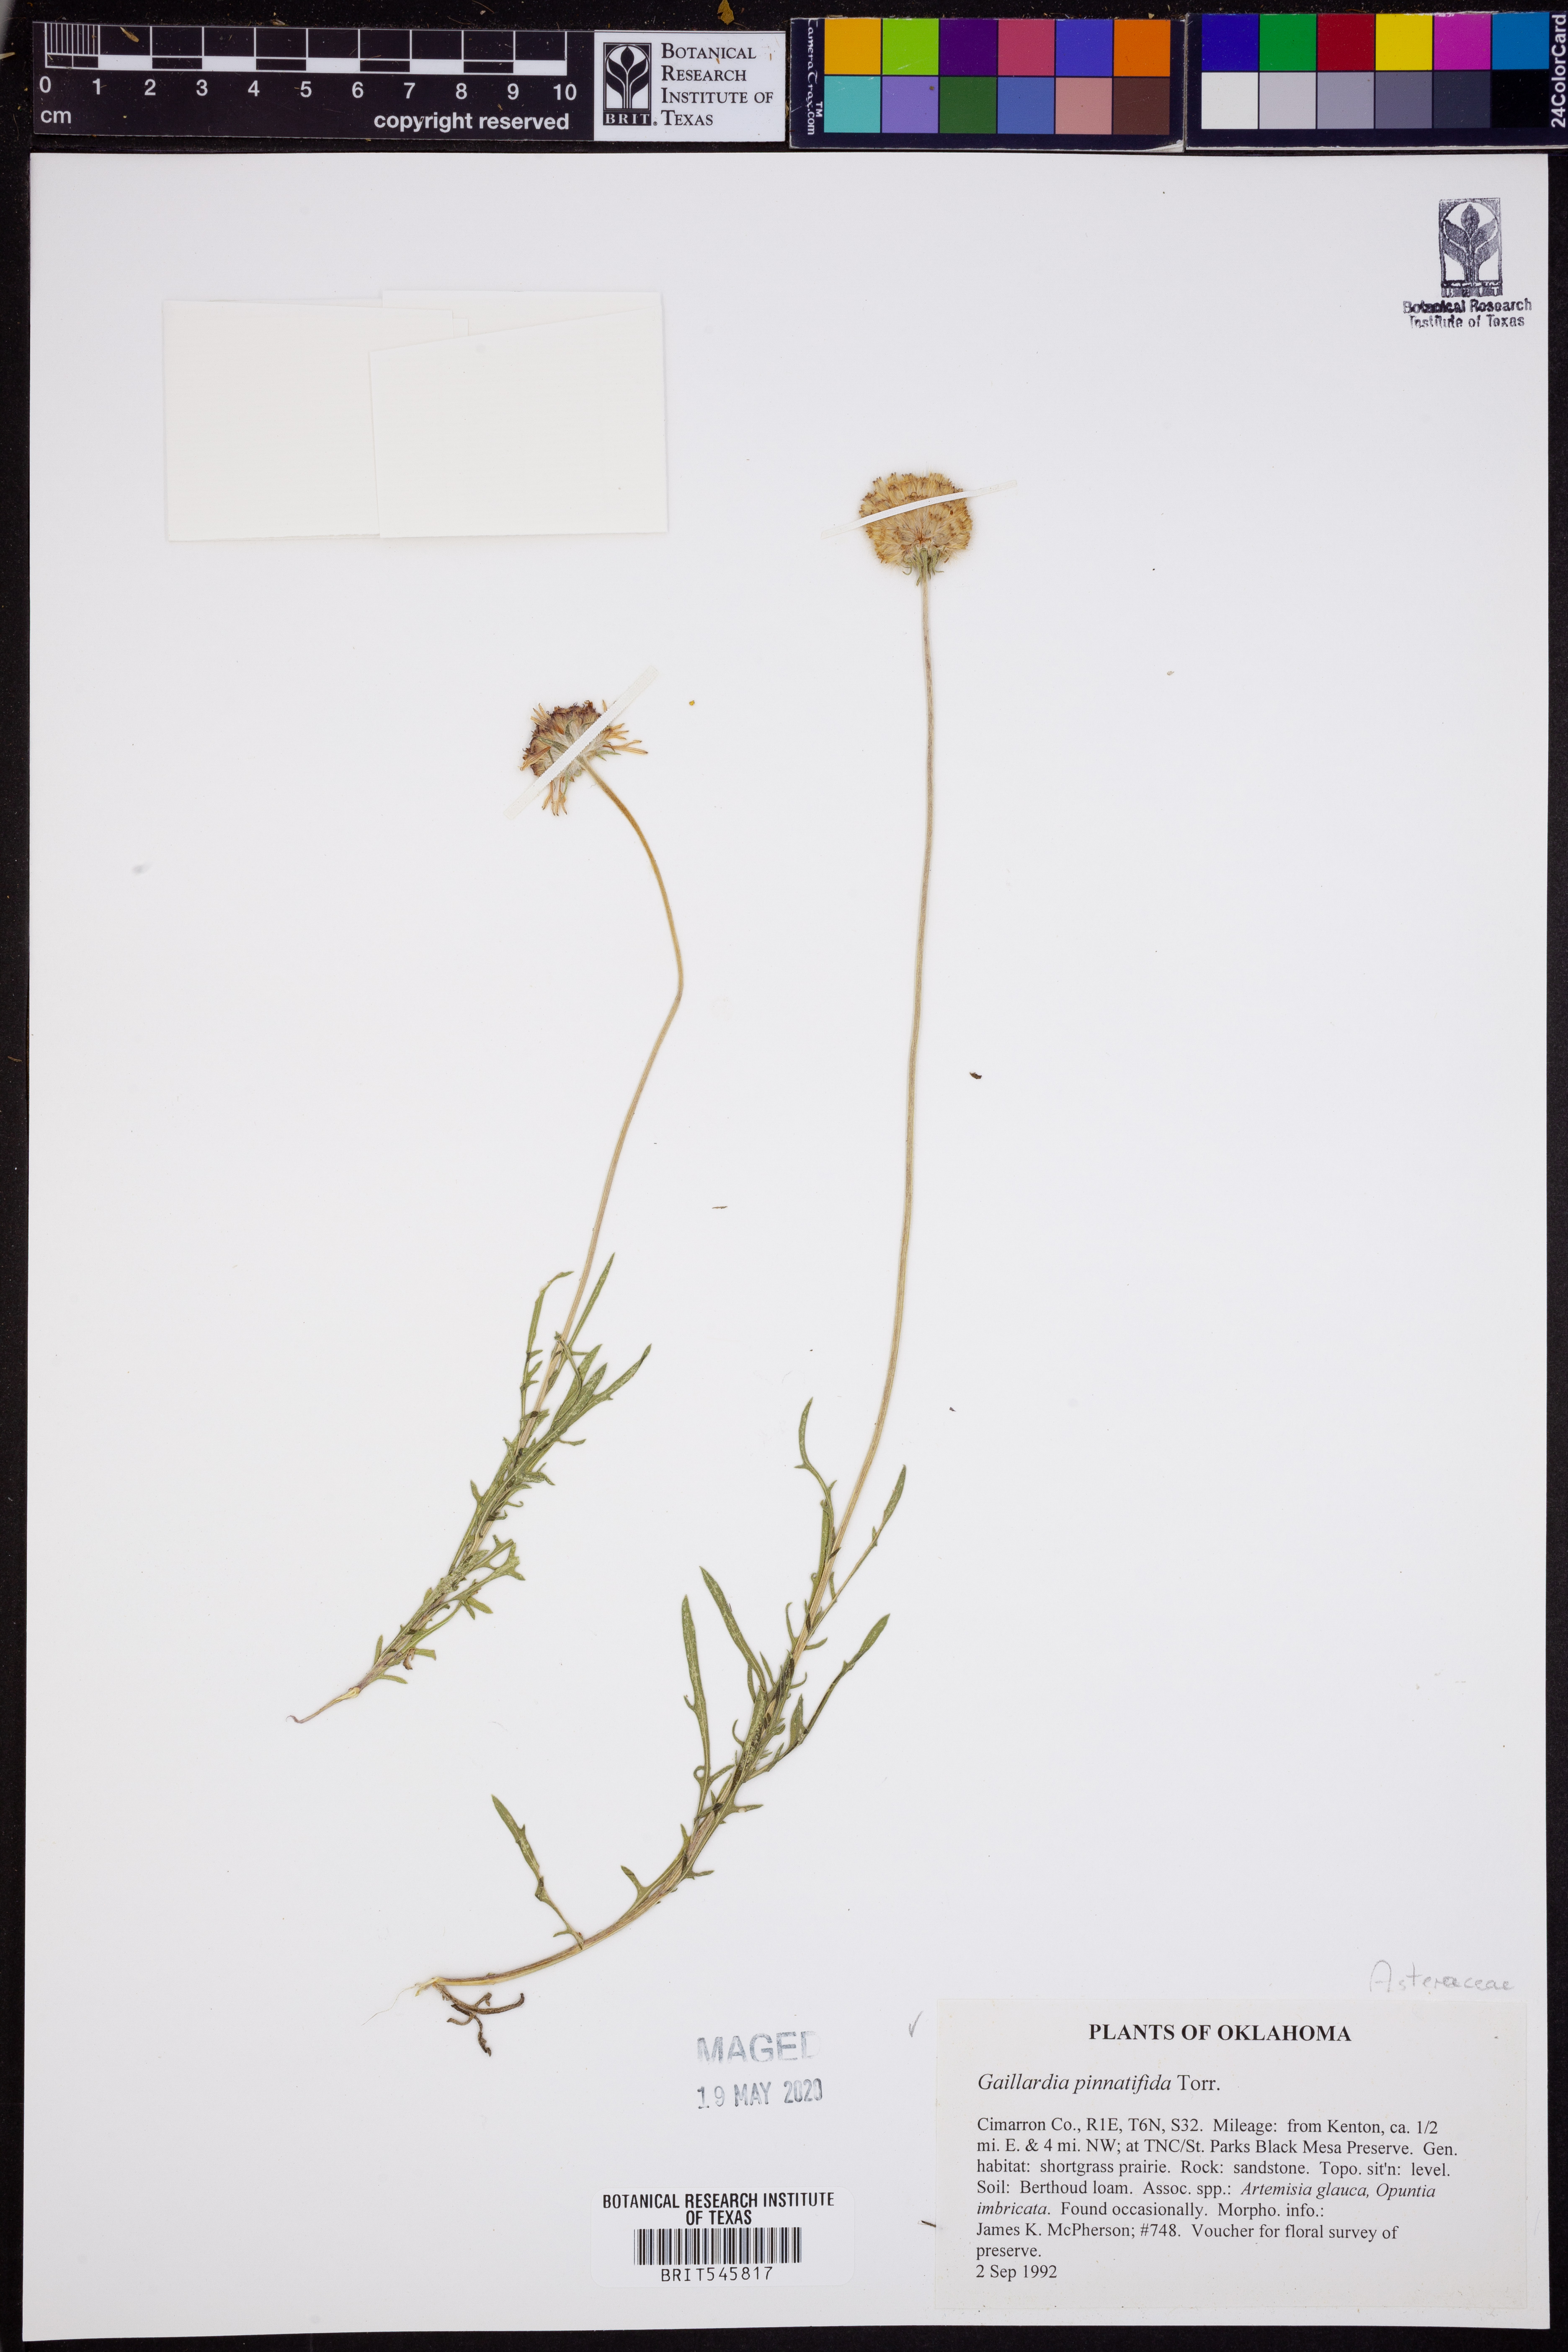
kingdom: Plantae
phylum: Tracheophyta
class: Magnoliopsida
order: Asterales
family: Asteraceae
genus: Gaillardia
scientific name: Gaillardia pinnatifida
